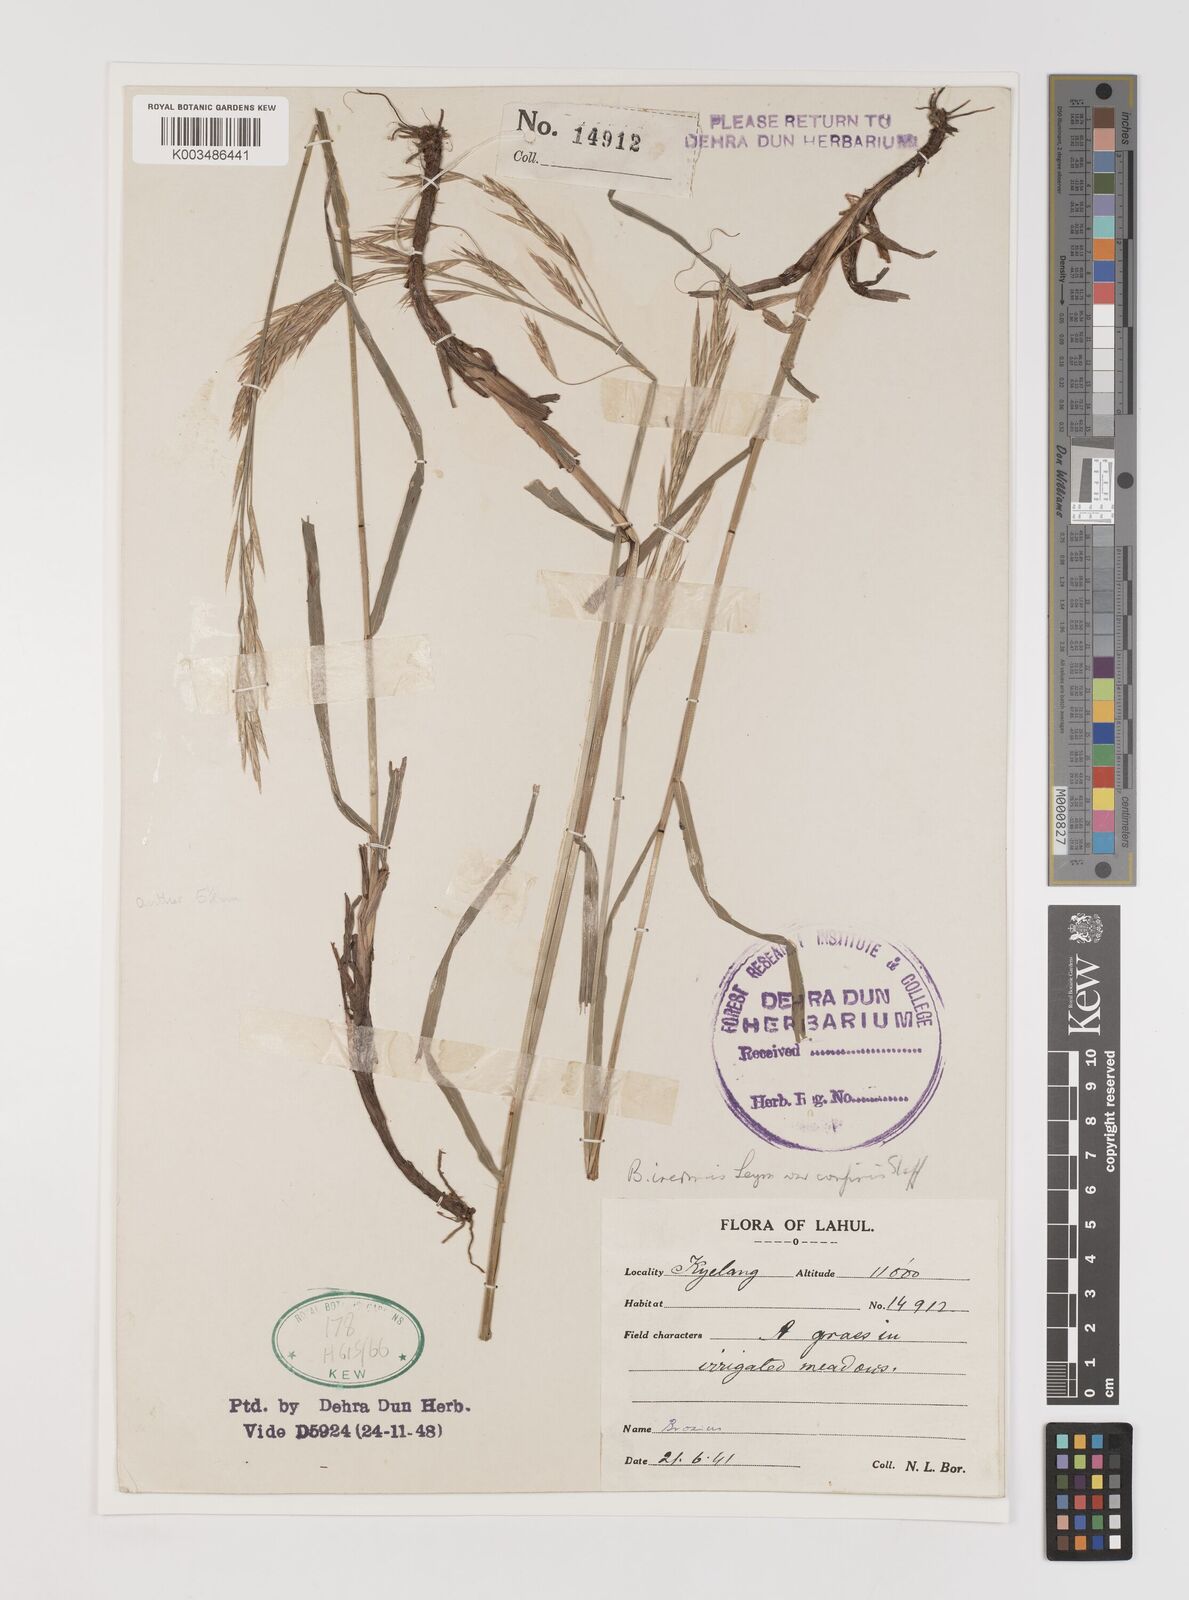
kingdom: Plantae
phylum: Tracheophyta
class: Liliopsida
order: Poales
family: Poaceae
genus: Bromus
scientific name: Bromus confinis
